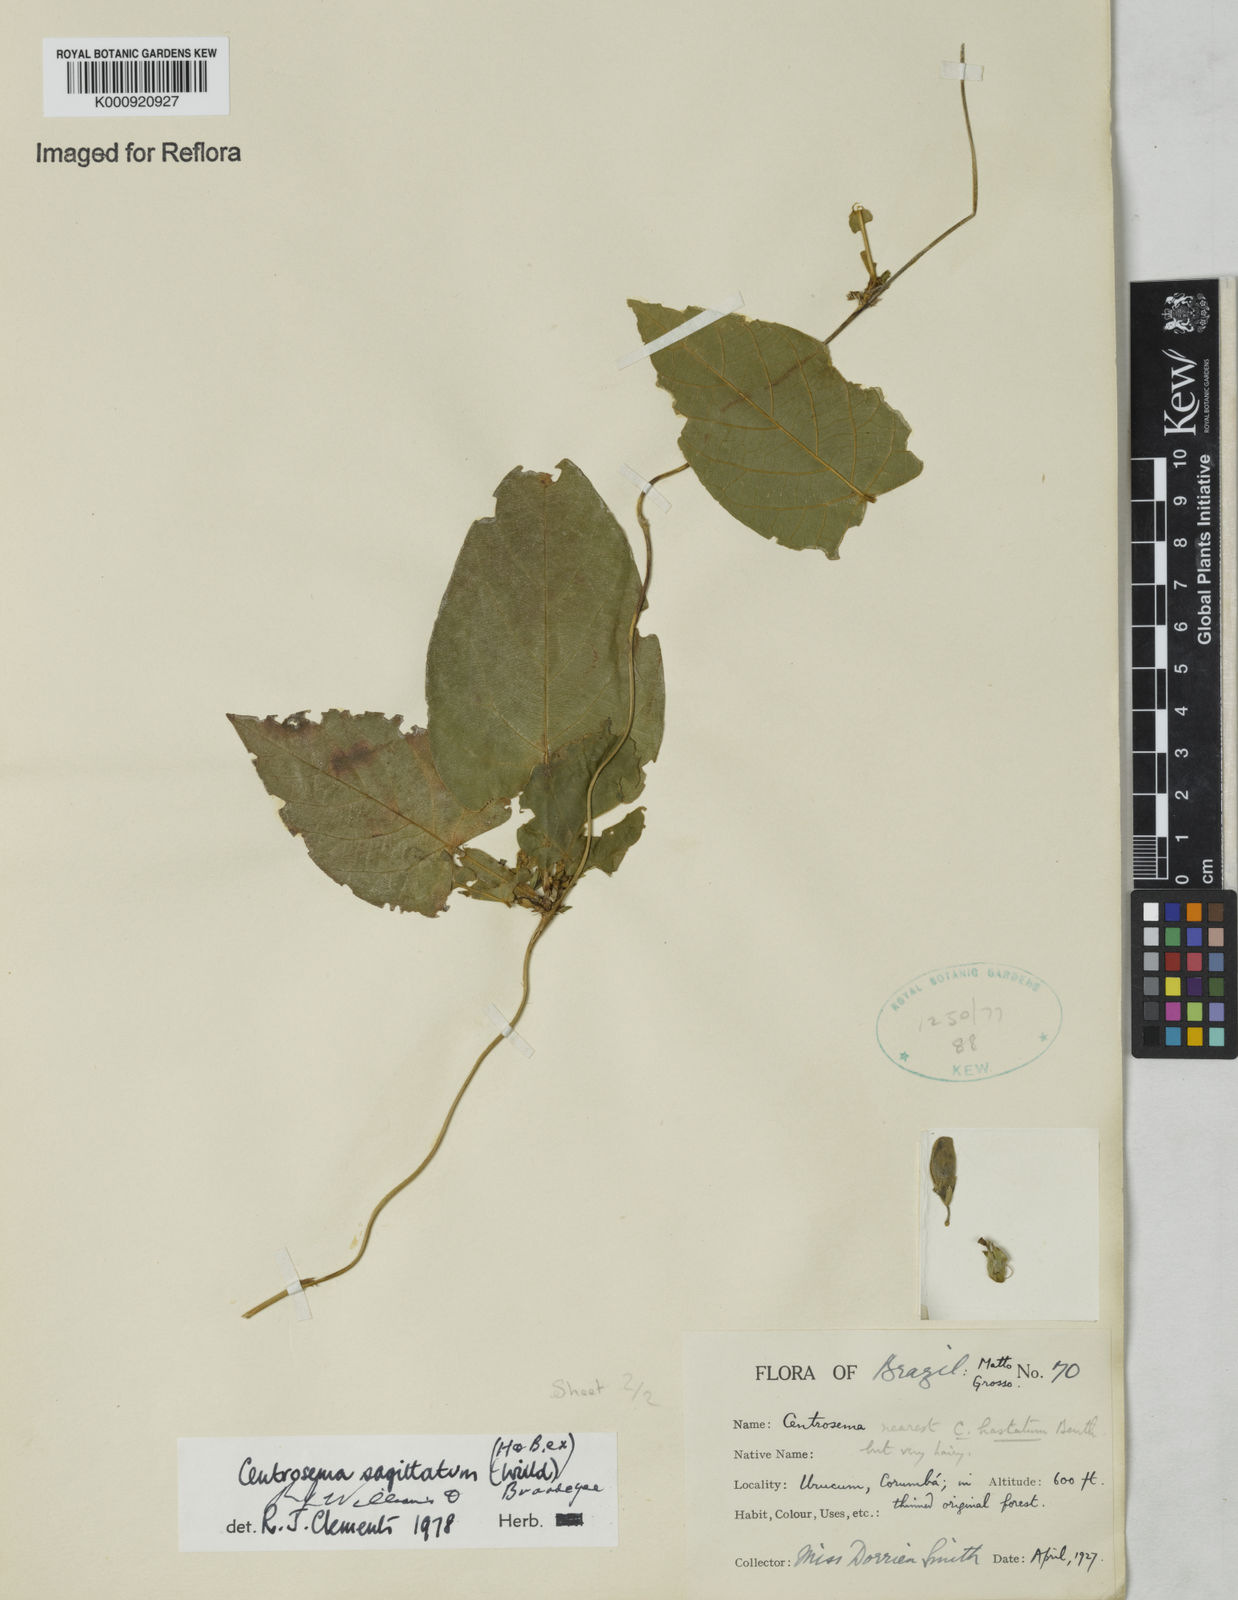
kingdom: Plantae
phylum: Tracheophyta
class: Magnoliopsida
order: Fabales
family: Fabaceae
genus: Centrosema
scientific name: Centrosema sagittatum
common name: Arrowleaf butterfly pea
